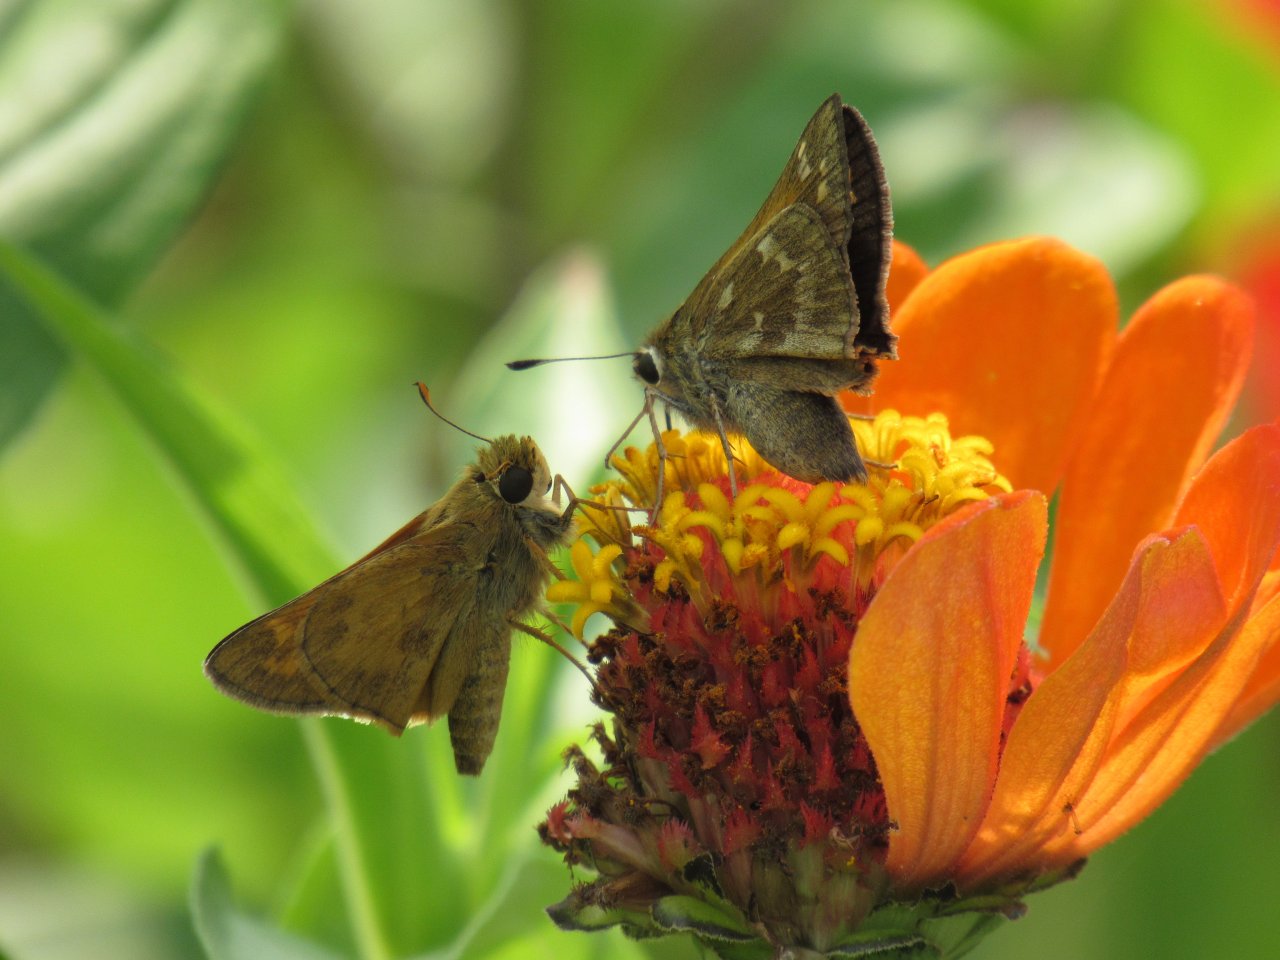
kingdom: Animalia
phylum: Arthropoda
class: Insecta
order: Lepidoptera
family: Hesperiidae
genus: Atalopedes
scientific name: Atalopedes campestris
